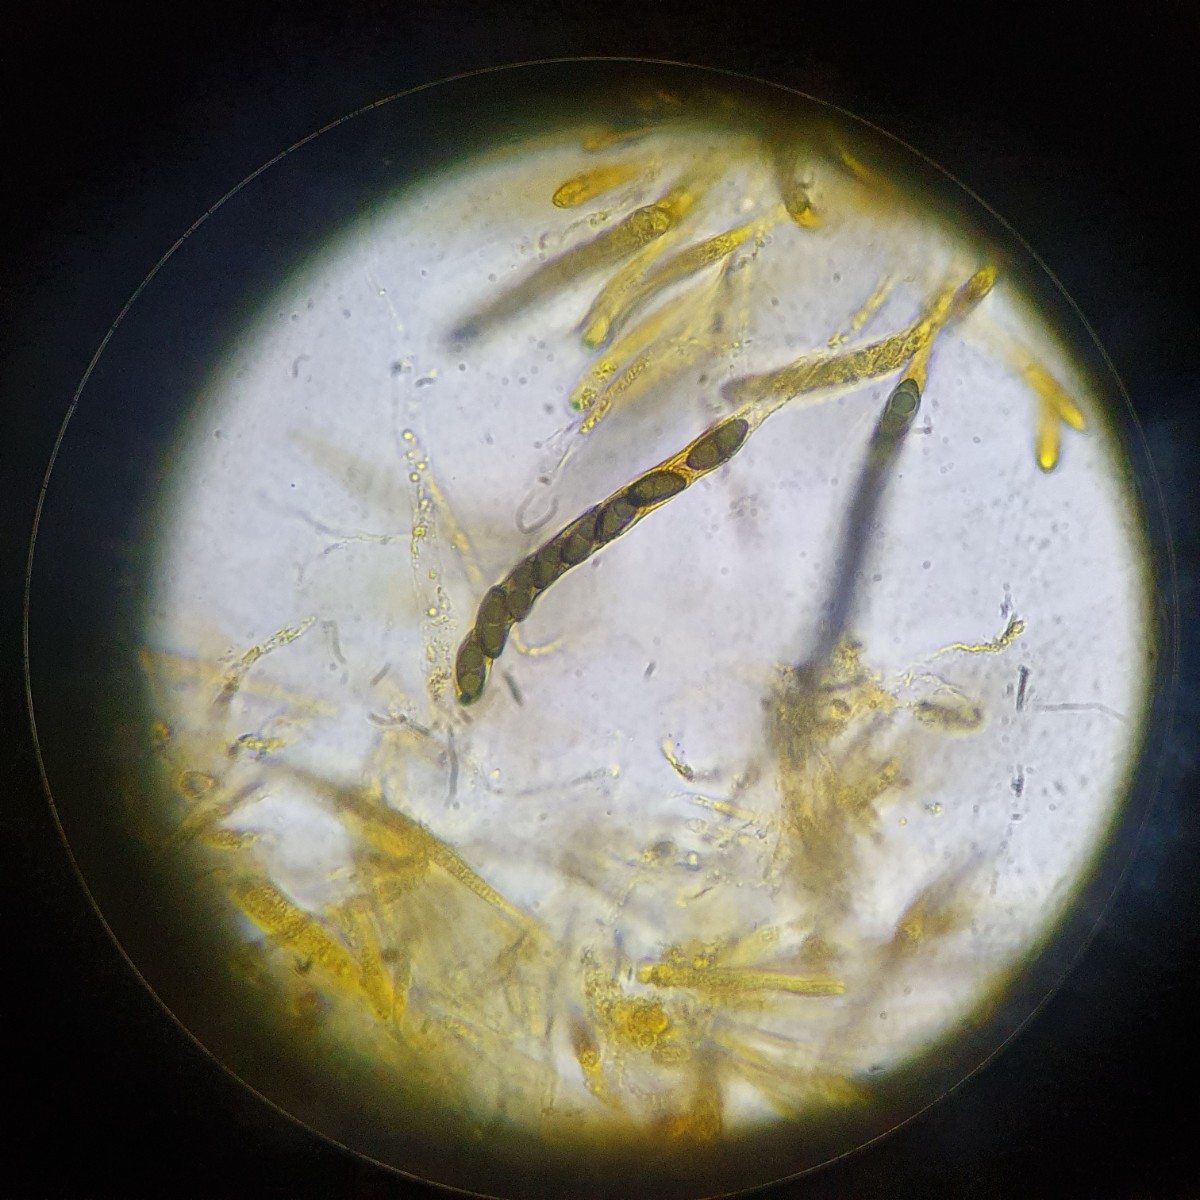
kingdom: Fungi
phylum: Ascomycota
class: Sordariomycetes
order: Xylariales
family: Xylariaceae
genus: Nemania
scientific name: Nemania serpens
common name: grønsporet kuldyne
